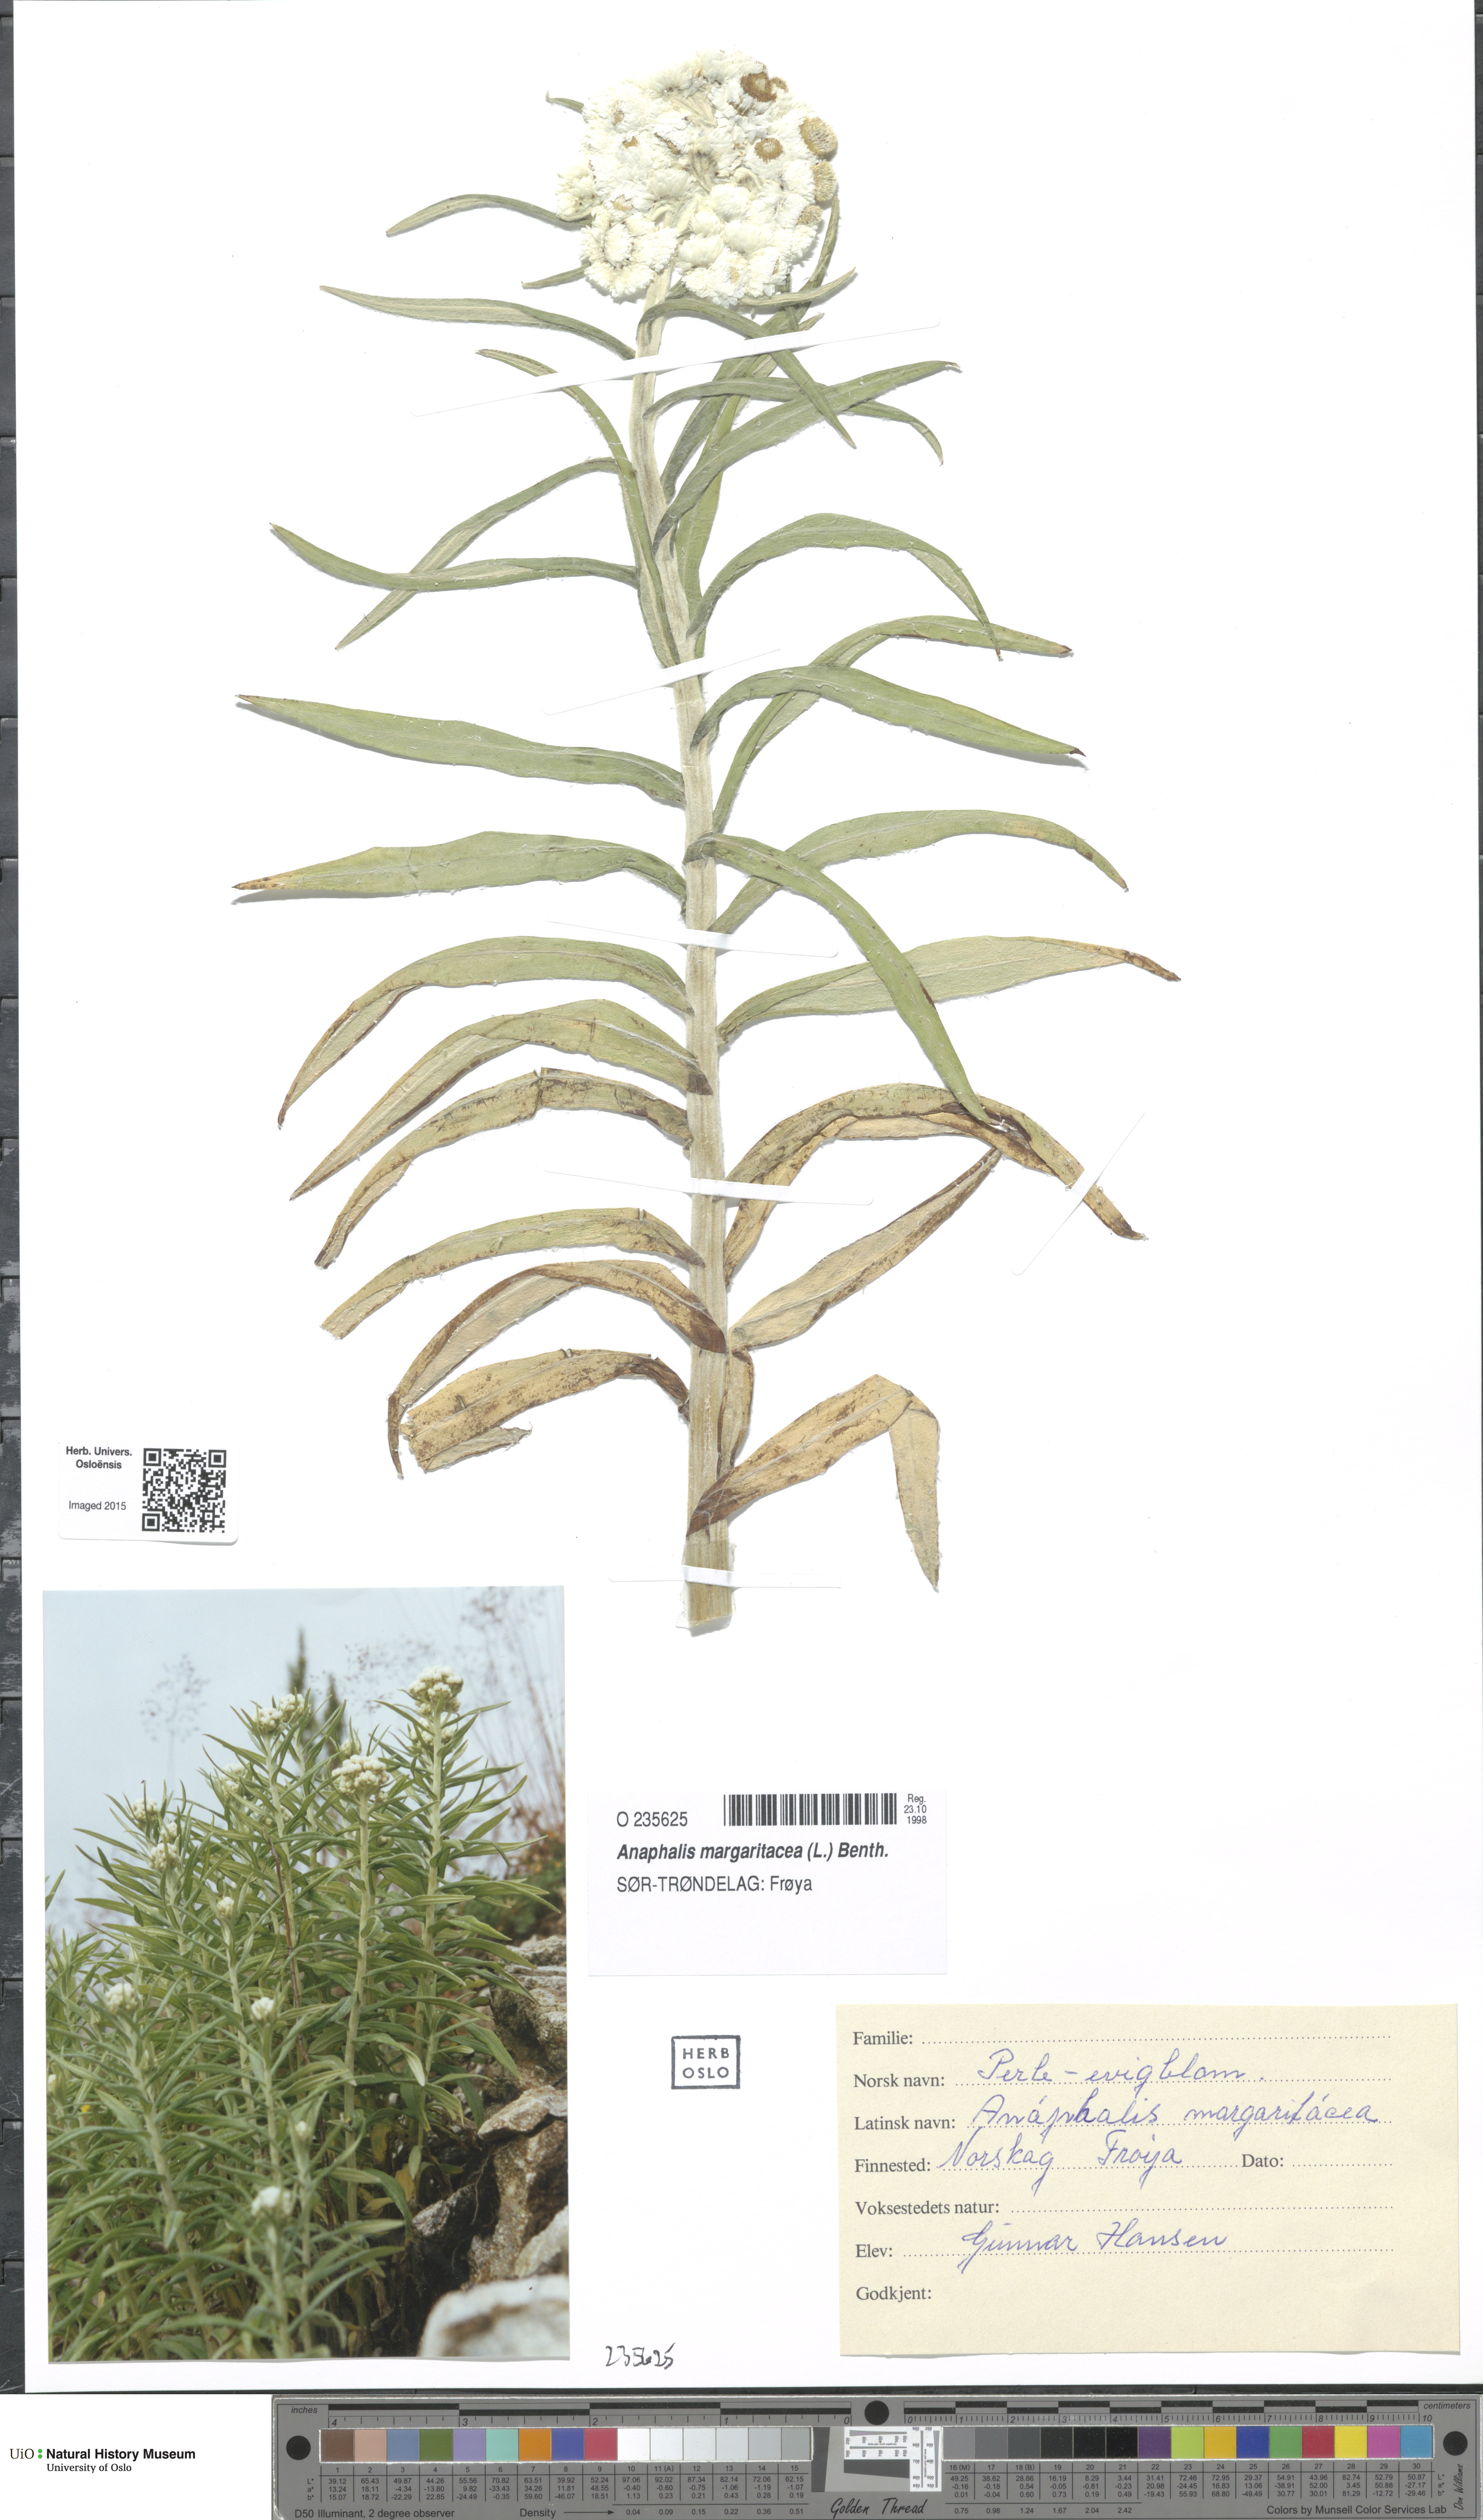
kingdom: Plantae
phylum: Tracheophyta
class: Magnoliopsida
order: Asterales
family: Asteraceae
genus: Anaphalis
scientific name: Anaphalis margaritacea
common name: Pearly everlasting
